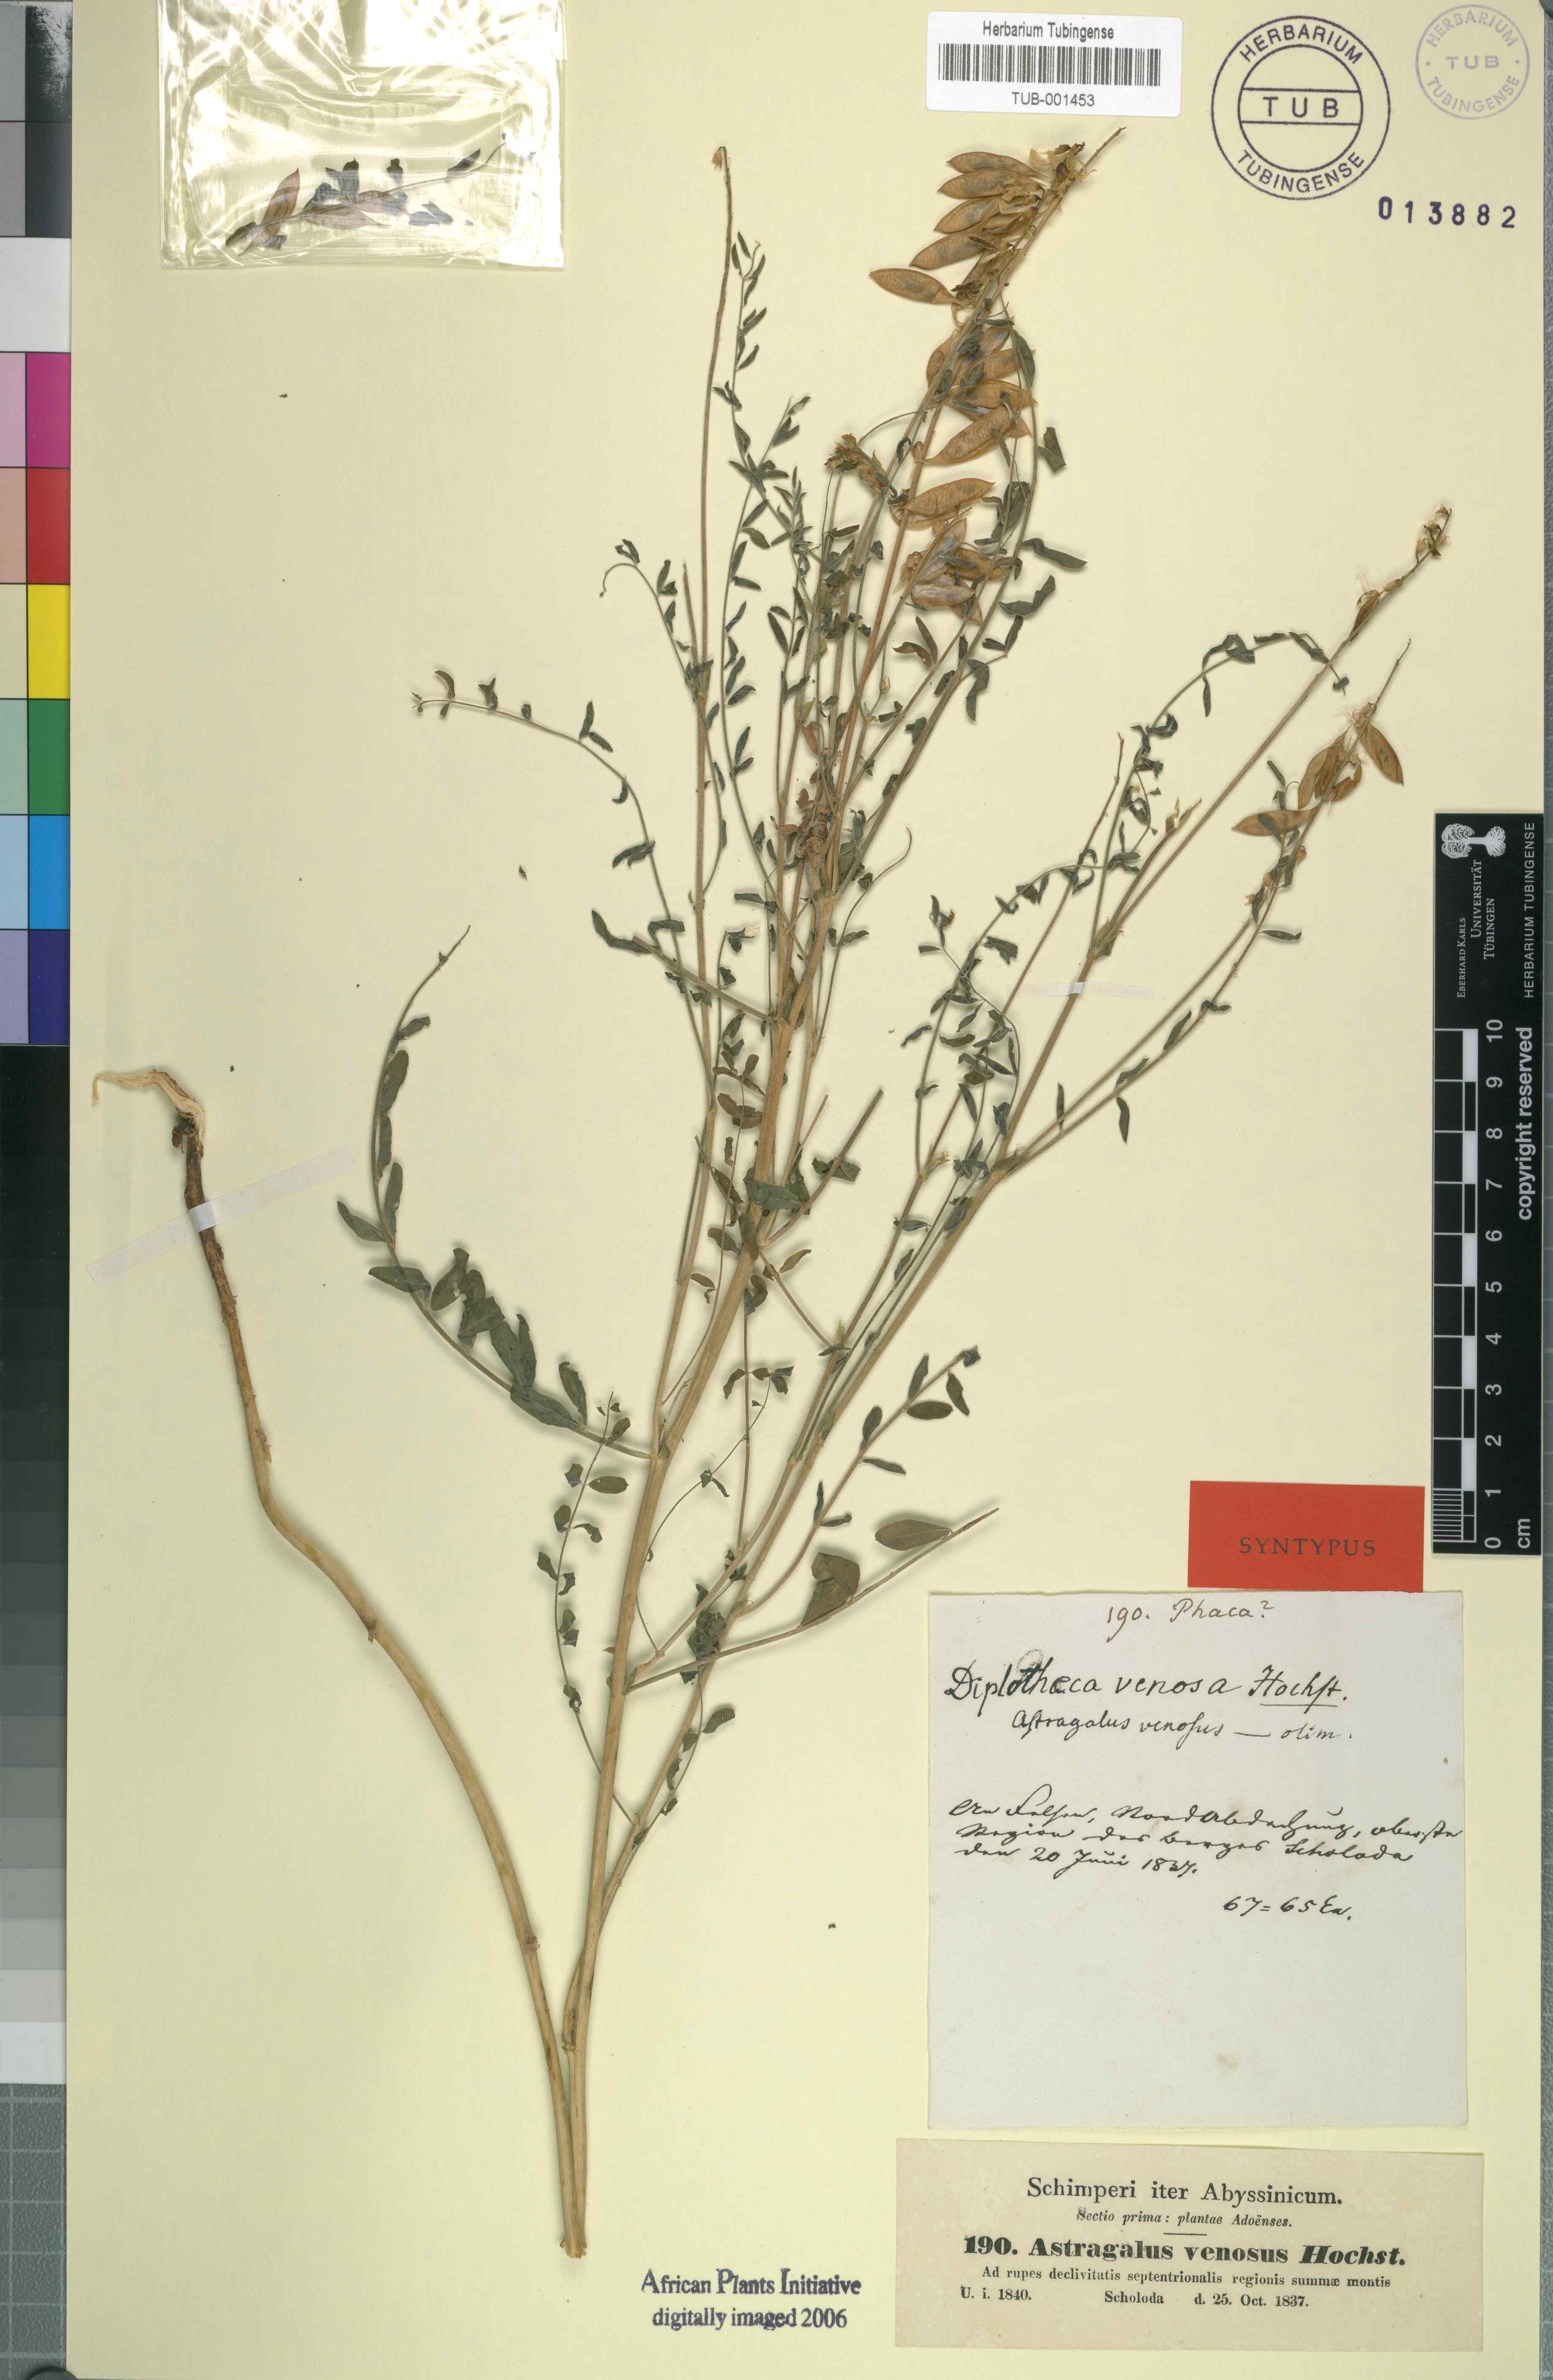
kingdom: Plantae
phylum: Tracheophyta
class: Magnoliopsida
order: Fabales
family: Fabaceae
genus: Astragalus
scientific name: Astragalus atropilosulus
